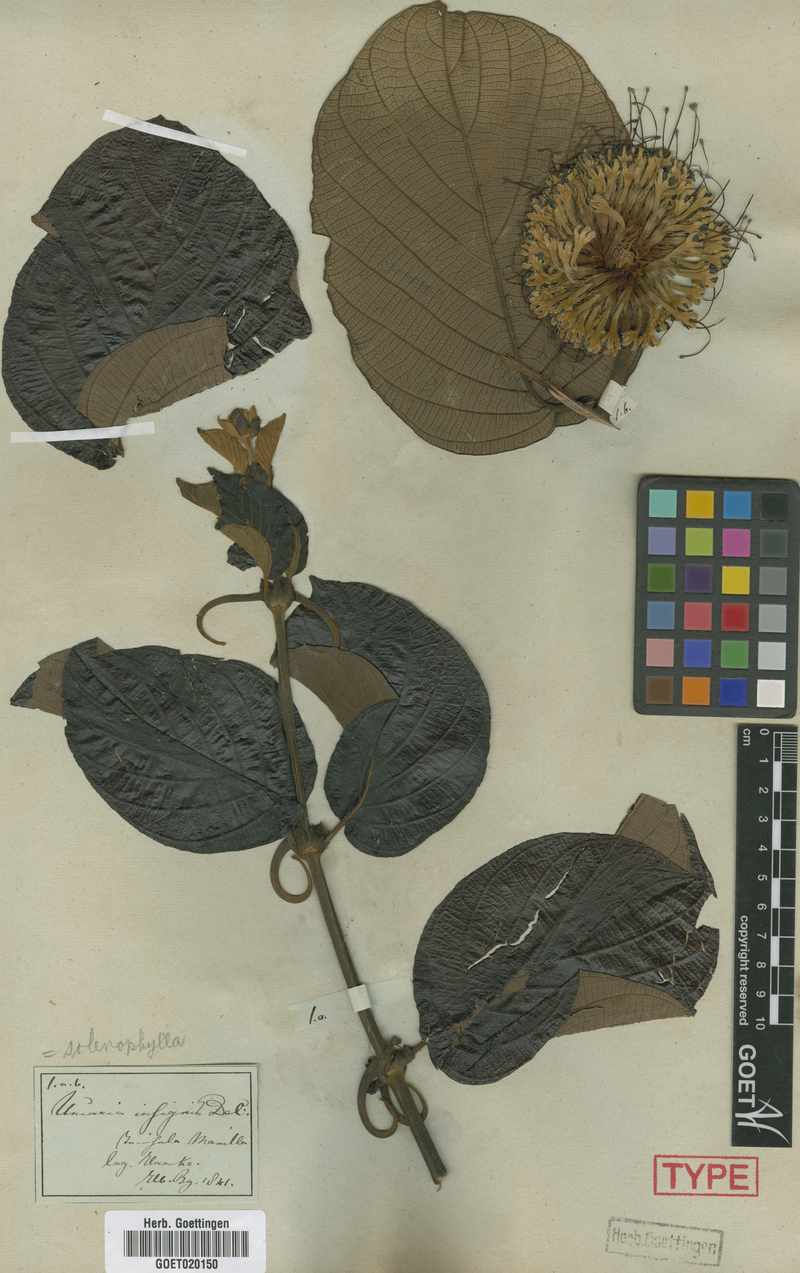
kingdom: Plantae
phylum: Tracheophyta
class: Magnoliopsida
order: Gentianales
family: Rubiaceae
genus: Uncaria
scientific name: Uncaria cordata
